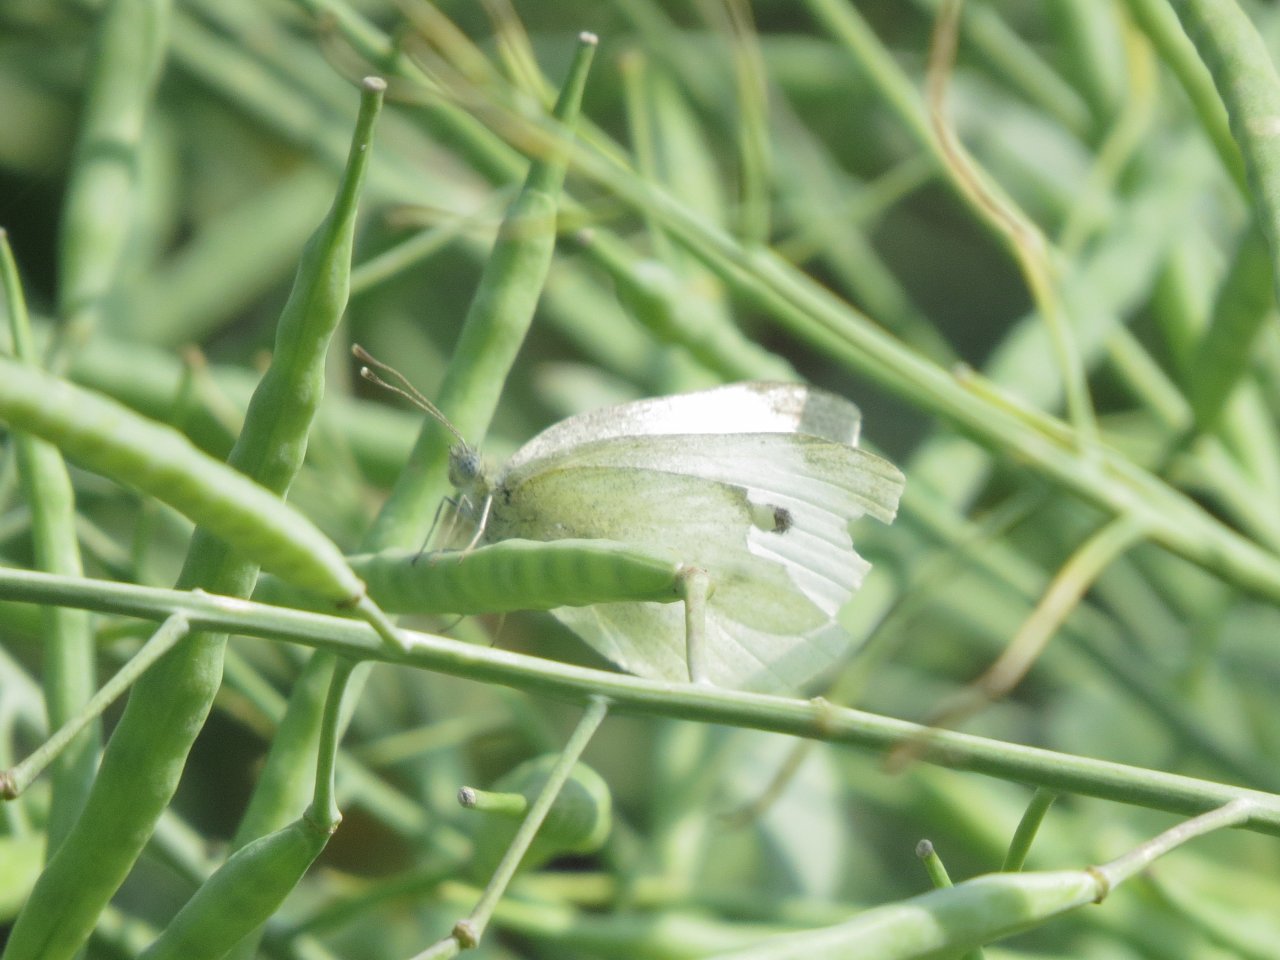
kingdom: Animalia
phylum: Arthropoda
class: Insecta
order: Lepidoptera
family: Pieridae
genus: Pieris
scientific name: Pieris rapae
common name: Cabbage White
